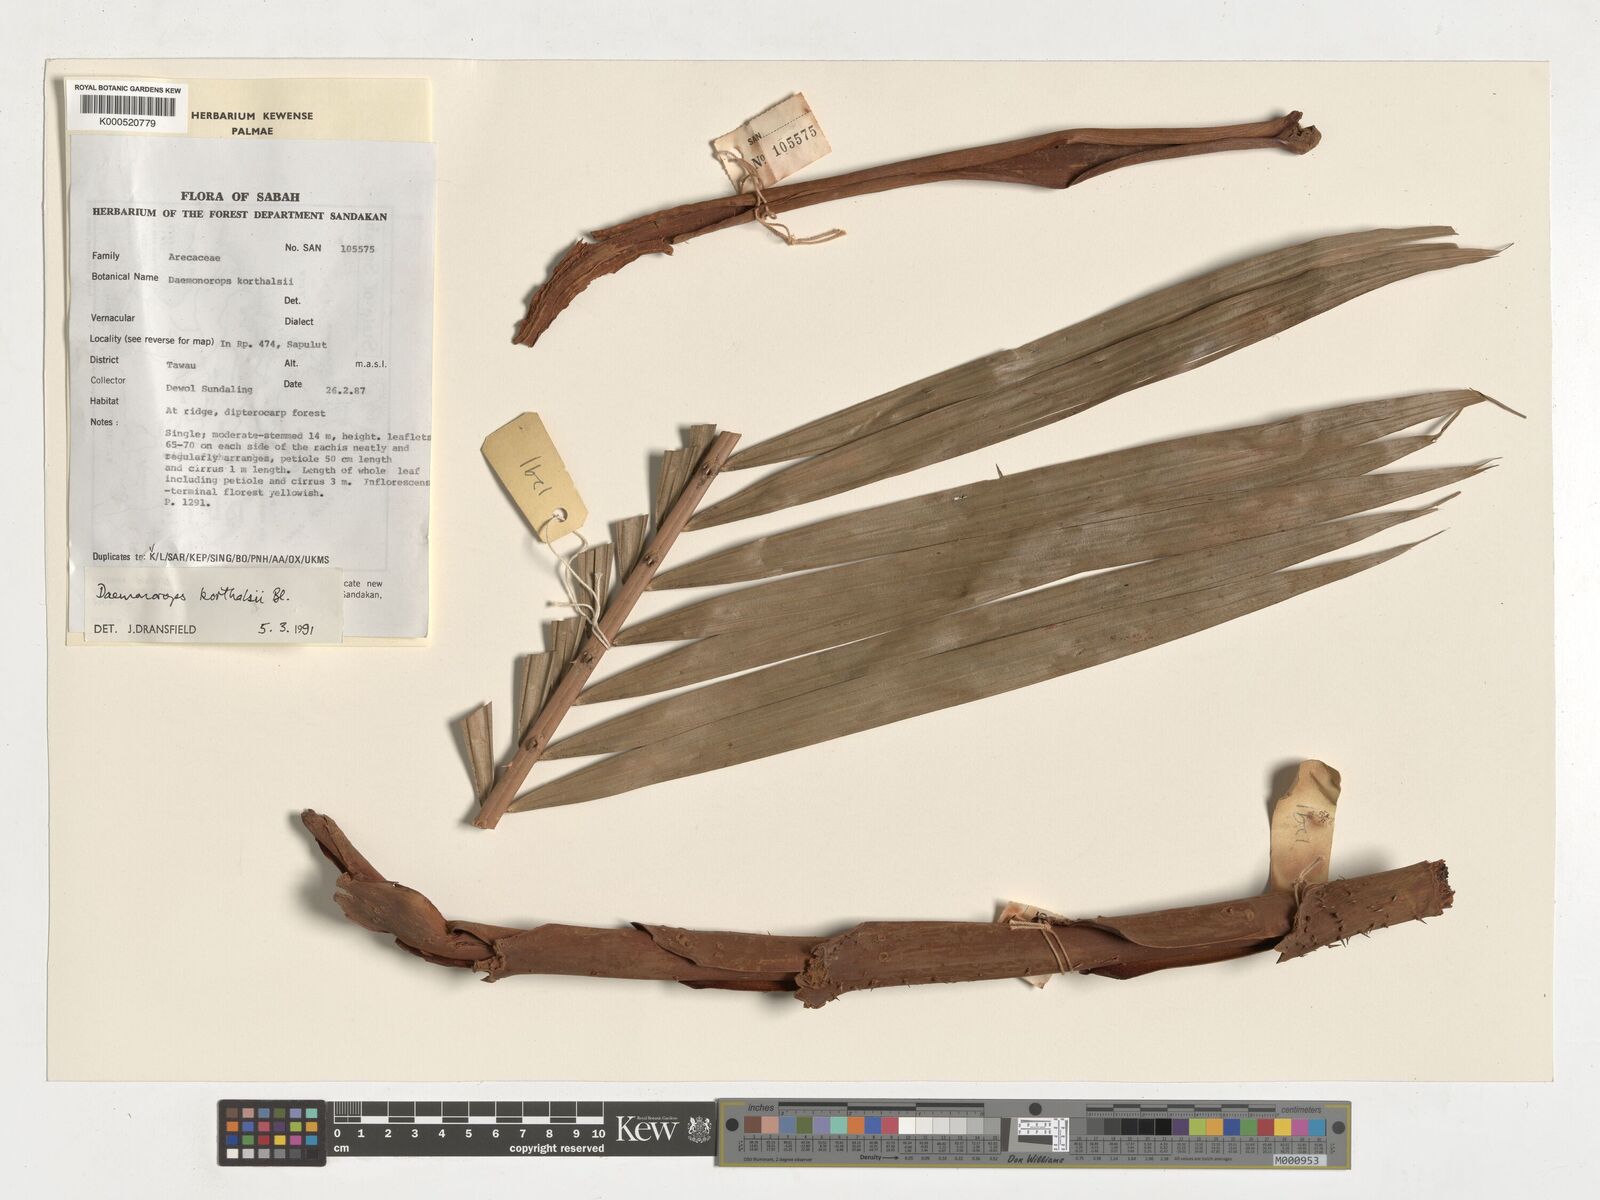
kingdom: Plantae
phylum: Tracheophyta
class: Liliopsida
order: Arecales
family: Arecaceae
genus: Calamus
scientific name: Calamus hirsutus
